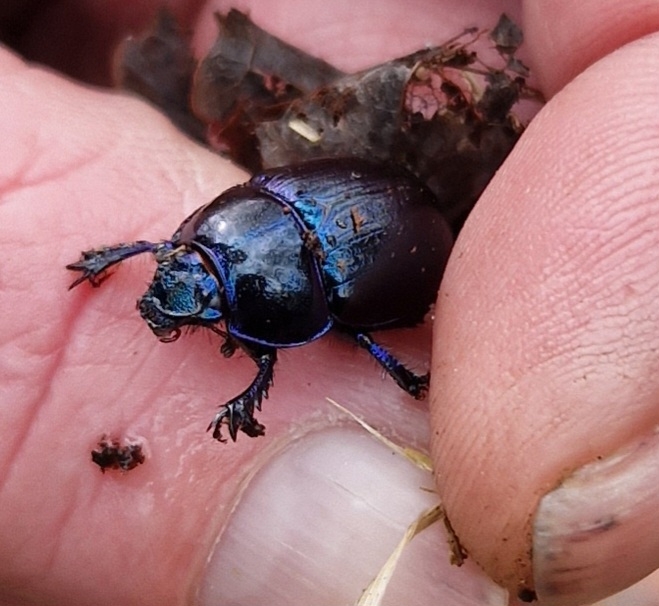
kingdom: Animalia
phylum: Arthropoda
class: Insecta
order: Coleoptera
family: Geotrupidae
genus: Anoplotrupes
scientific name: Anoplotrupes stercorosus
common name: Skovskarnbasse
